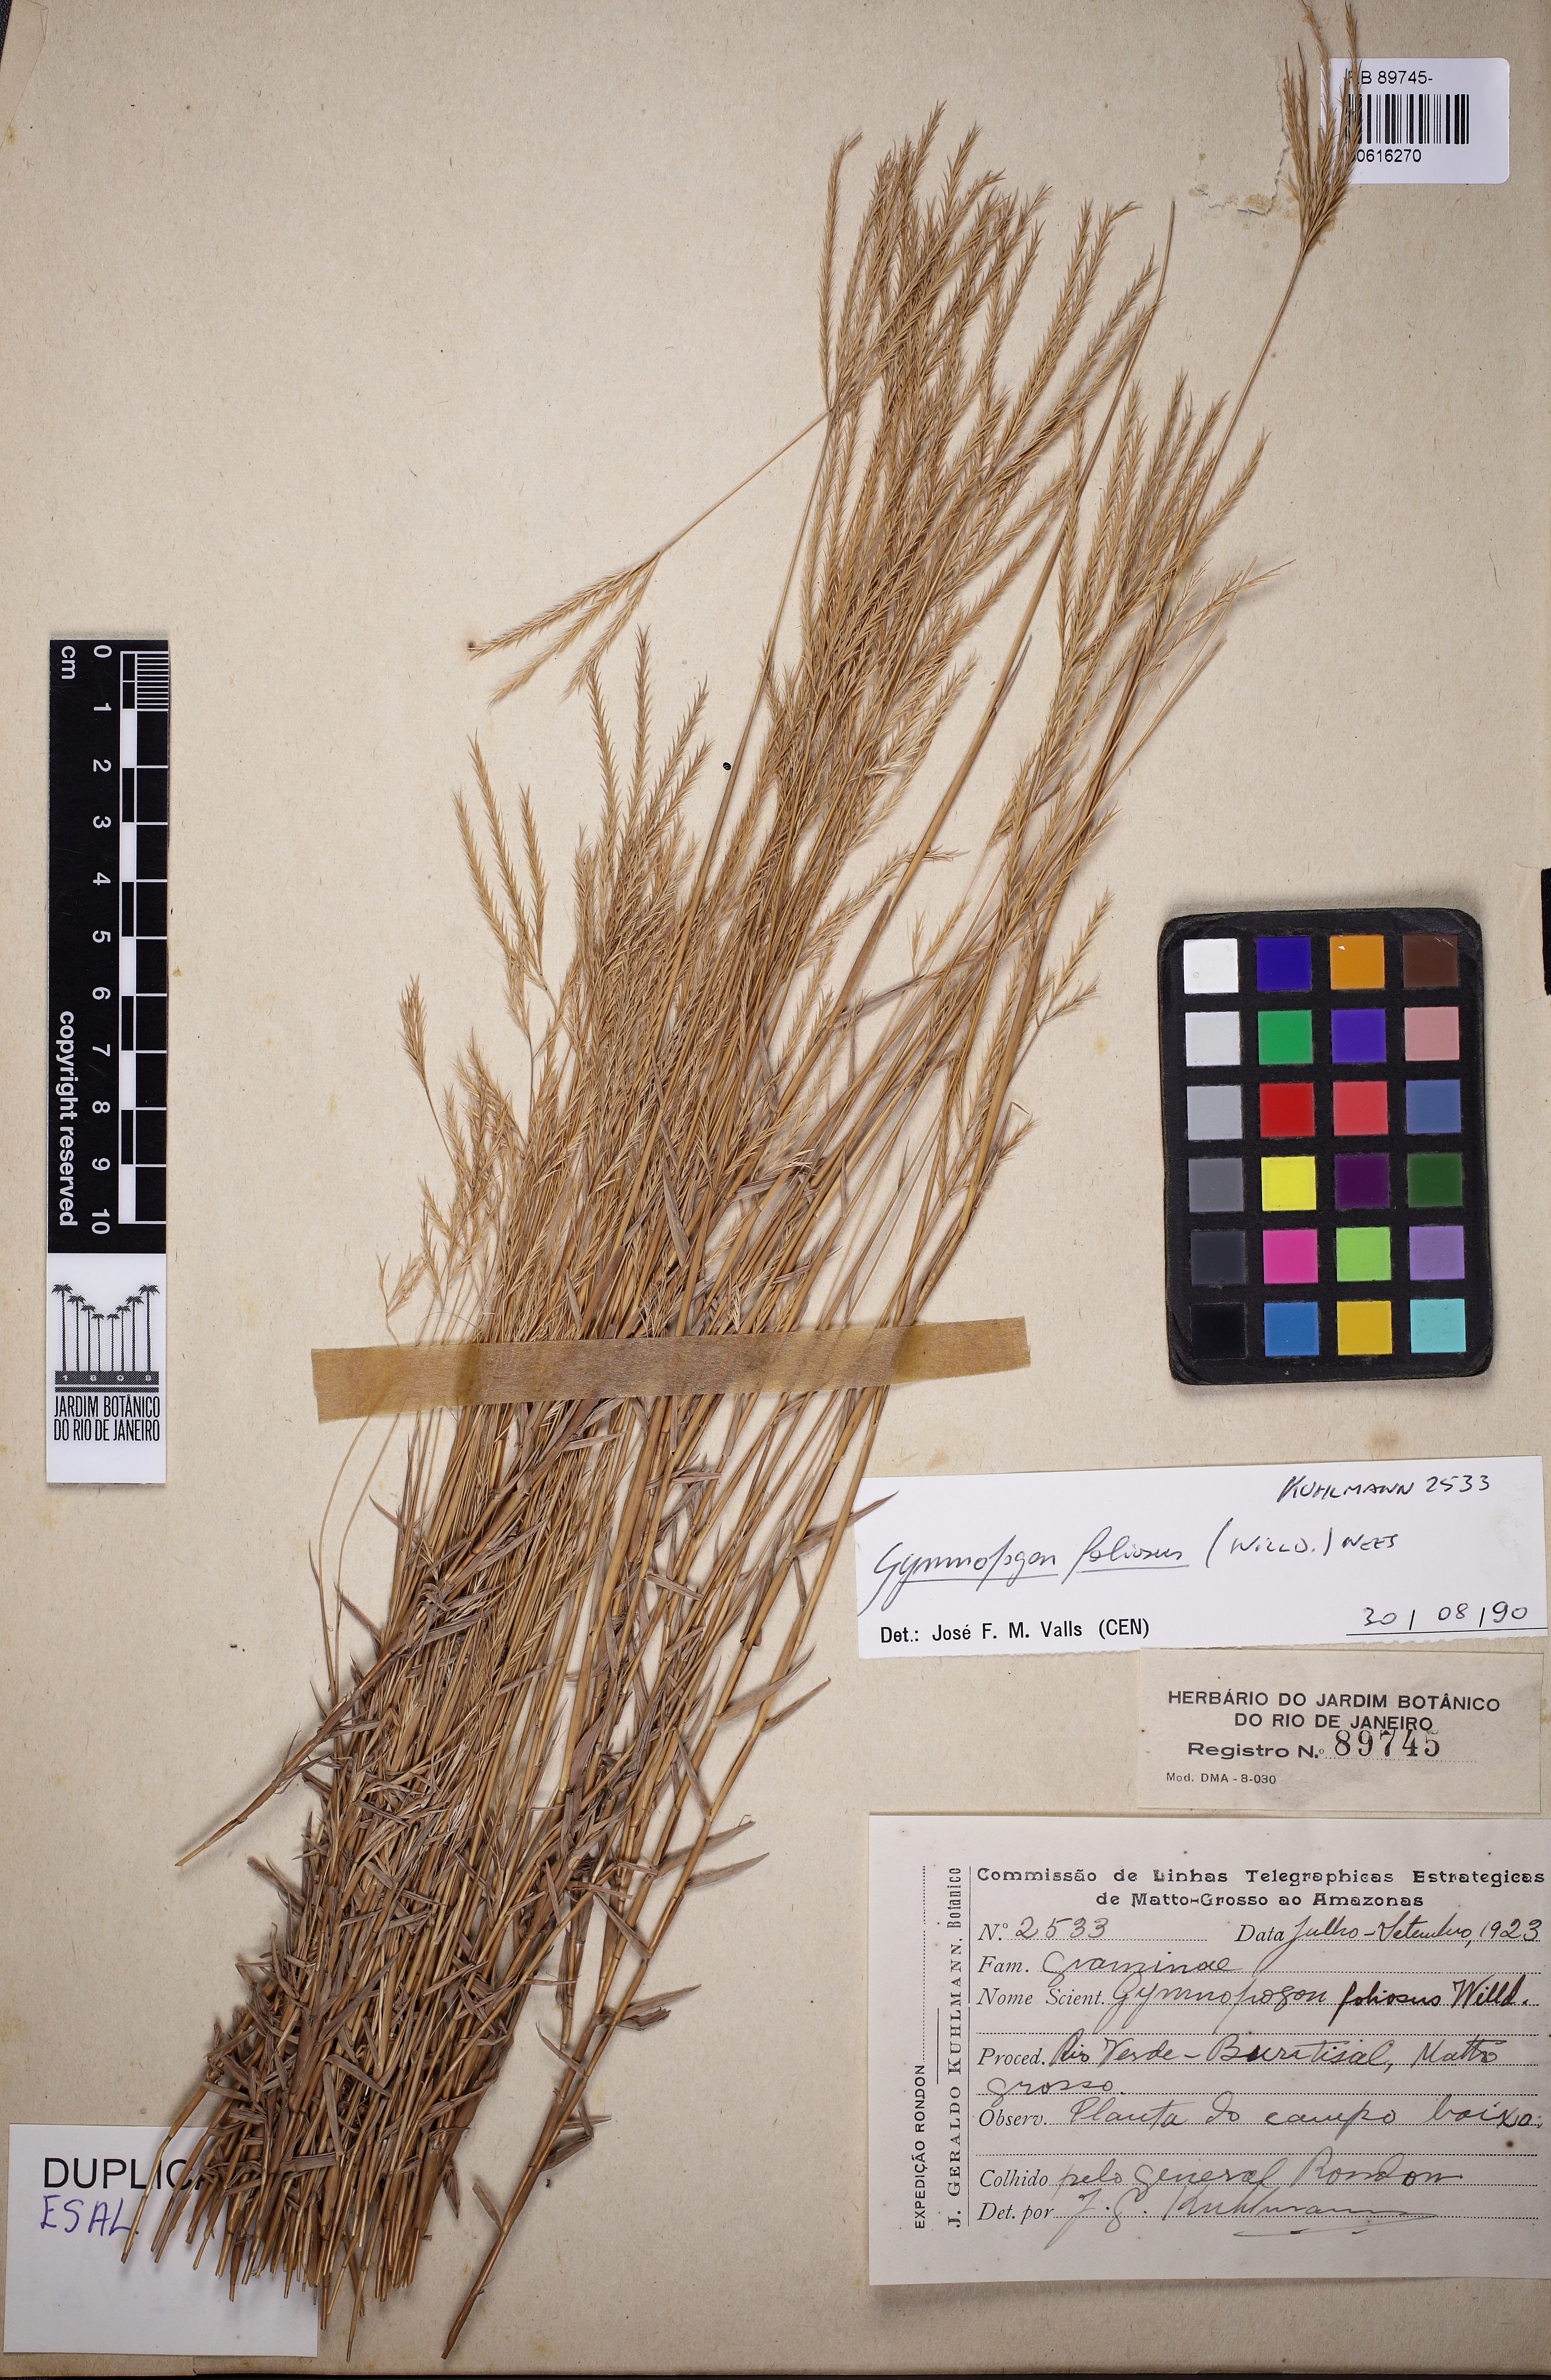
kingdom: Plantae
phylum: Tracheophyta
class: Liliopsida
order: Poales
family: Poaceae
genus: Gymnopogon
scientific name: Gymnopogon foliosus
